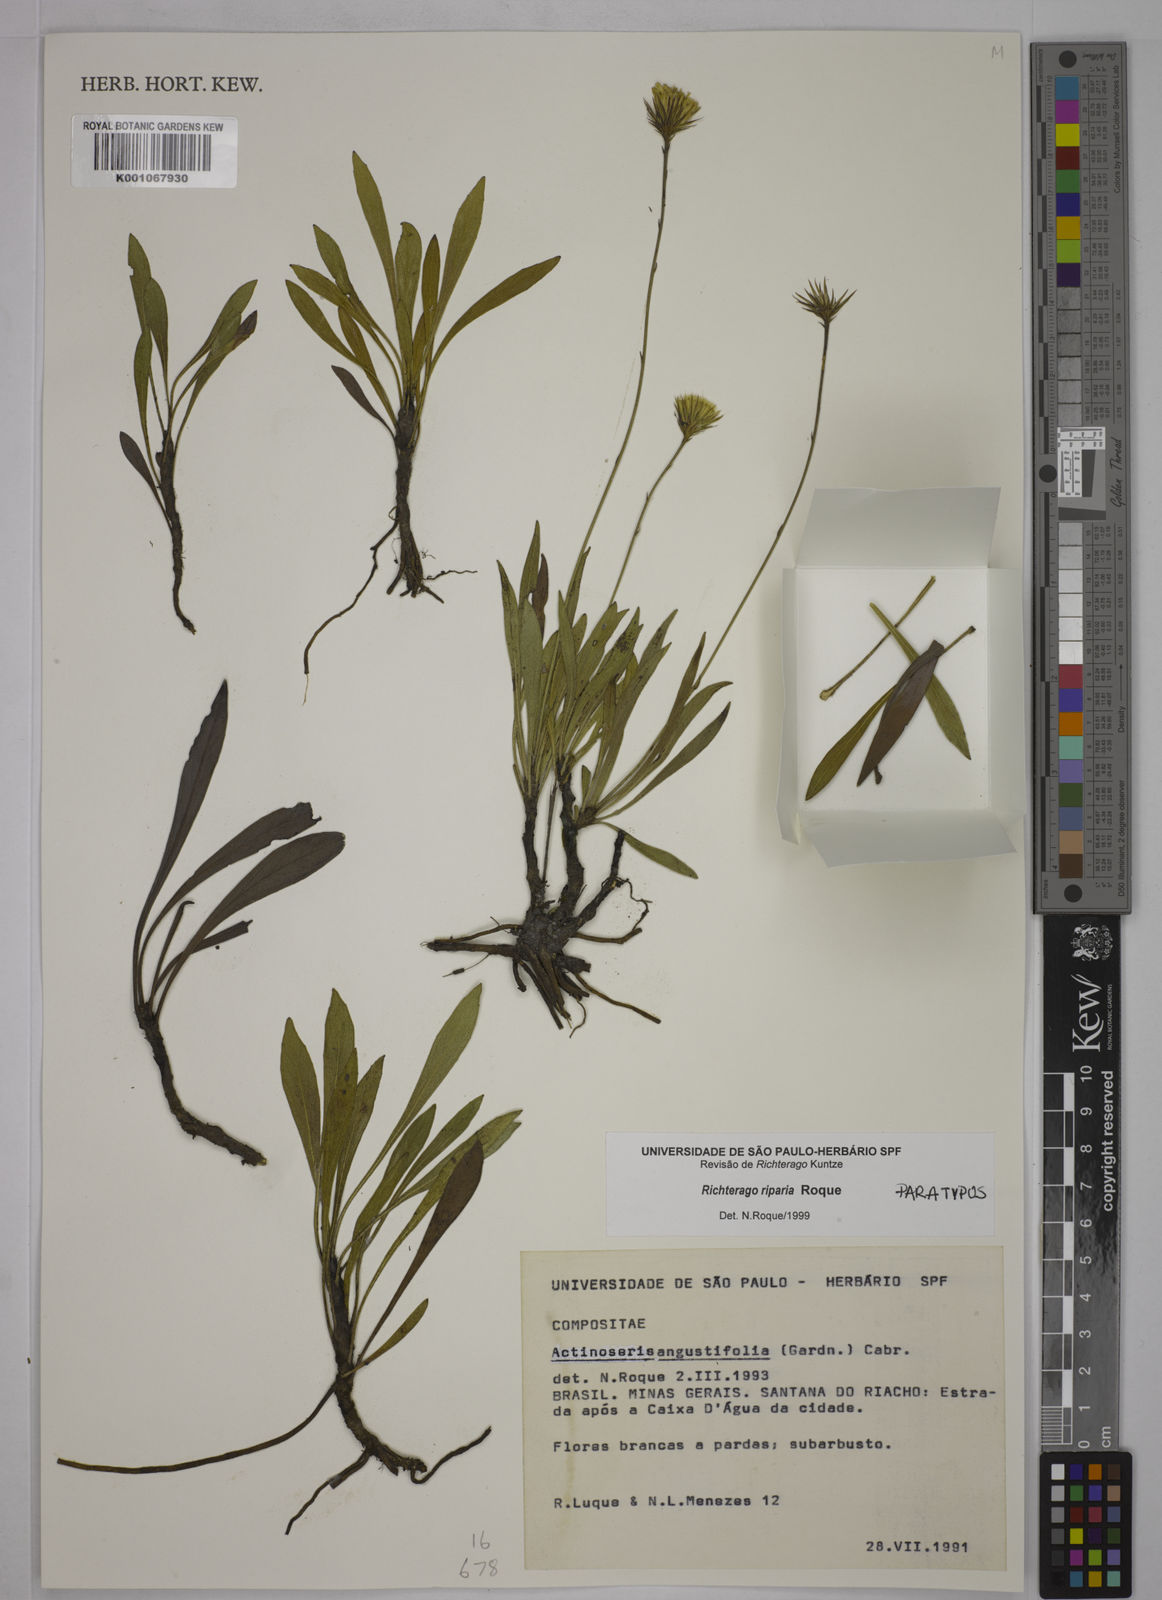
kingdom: Plantae
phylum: Tracheophyta
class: Magnoliopsida
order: Asterales
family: Asteraceae
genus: Richterago
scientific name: Richterago riparia
